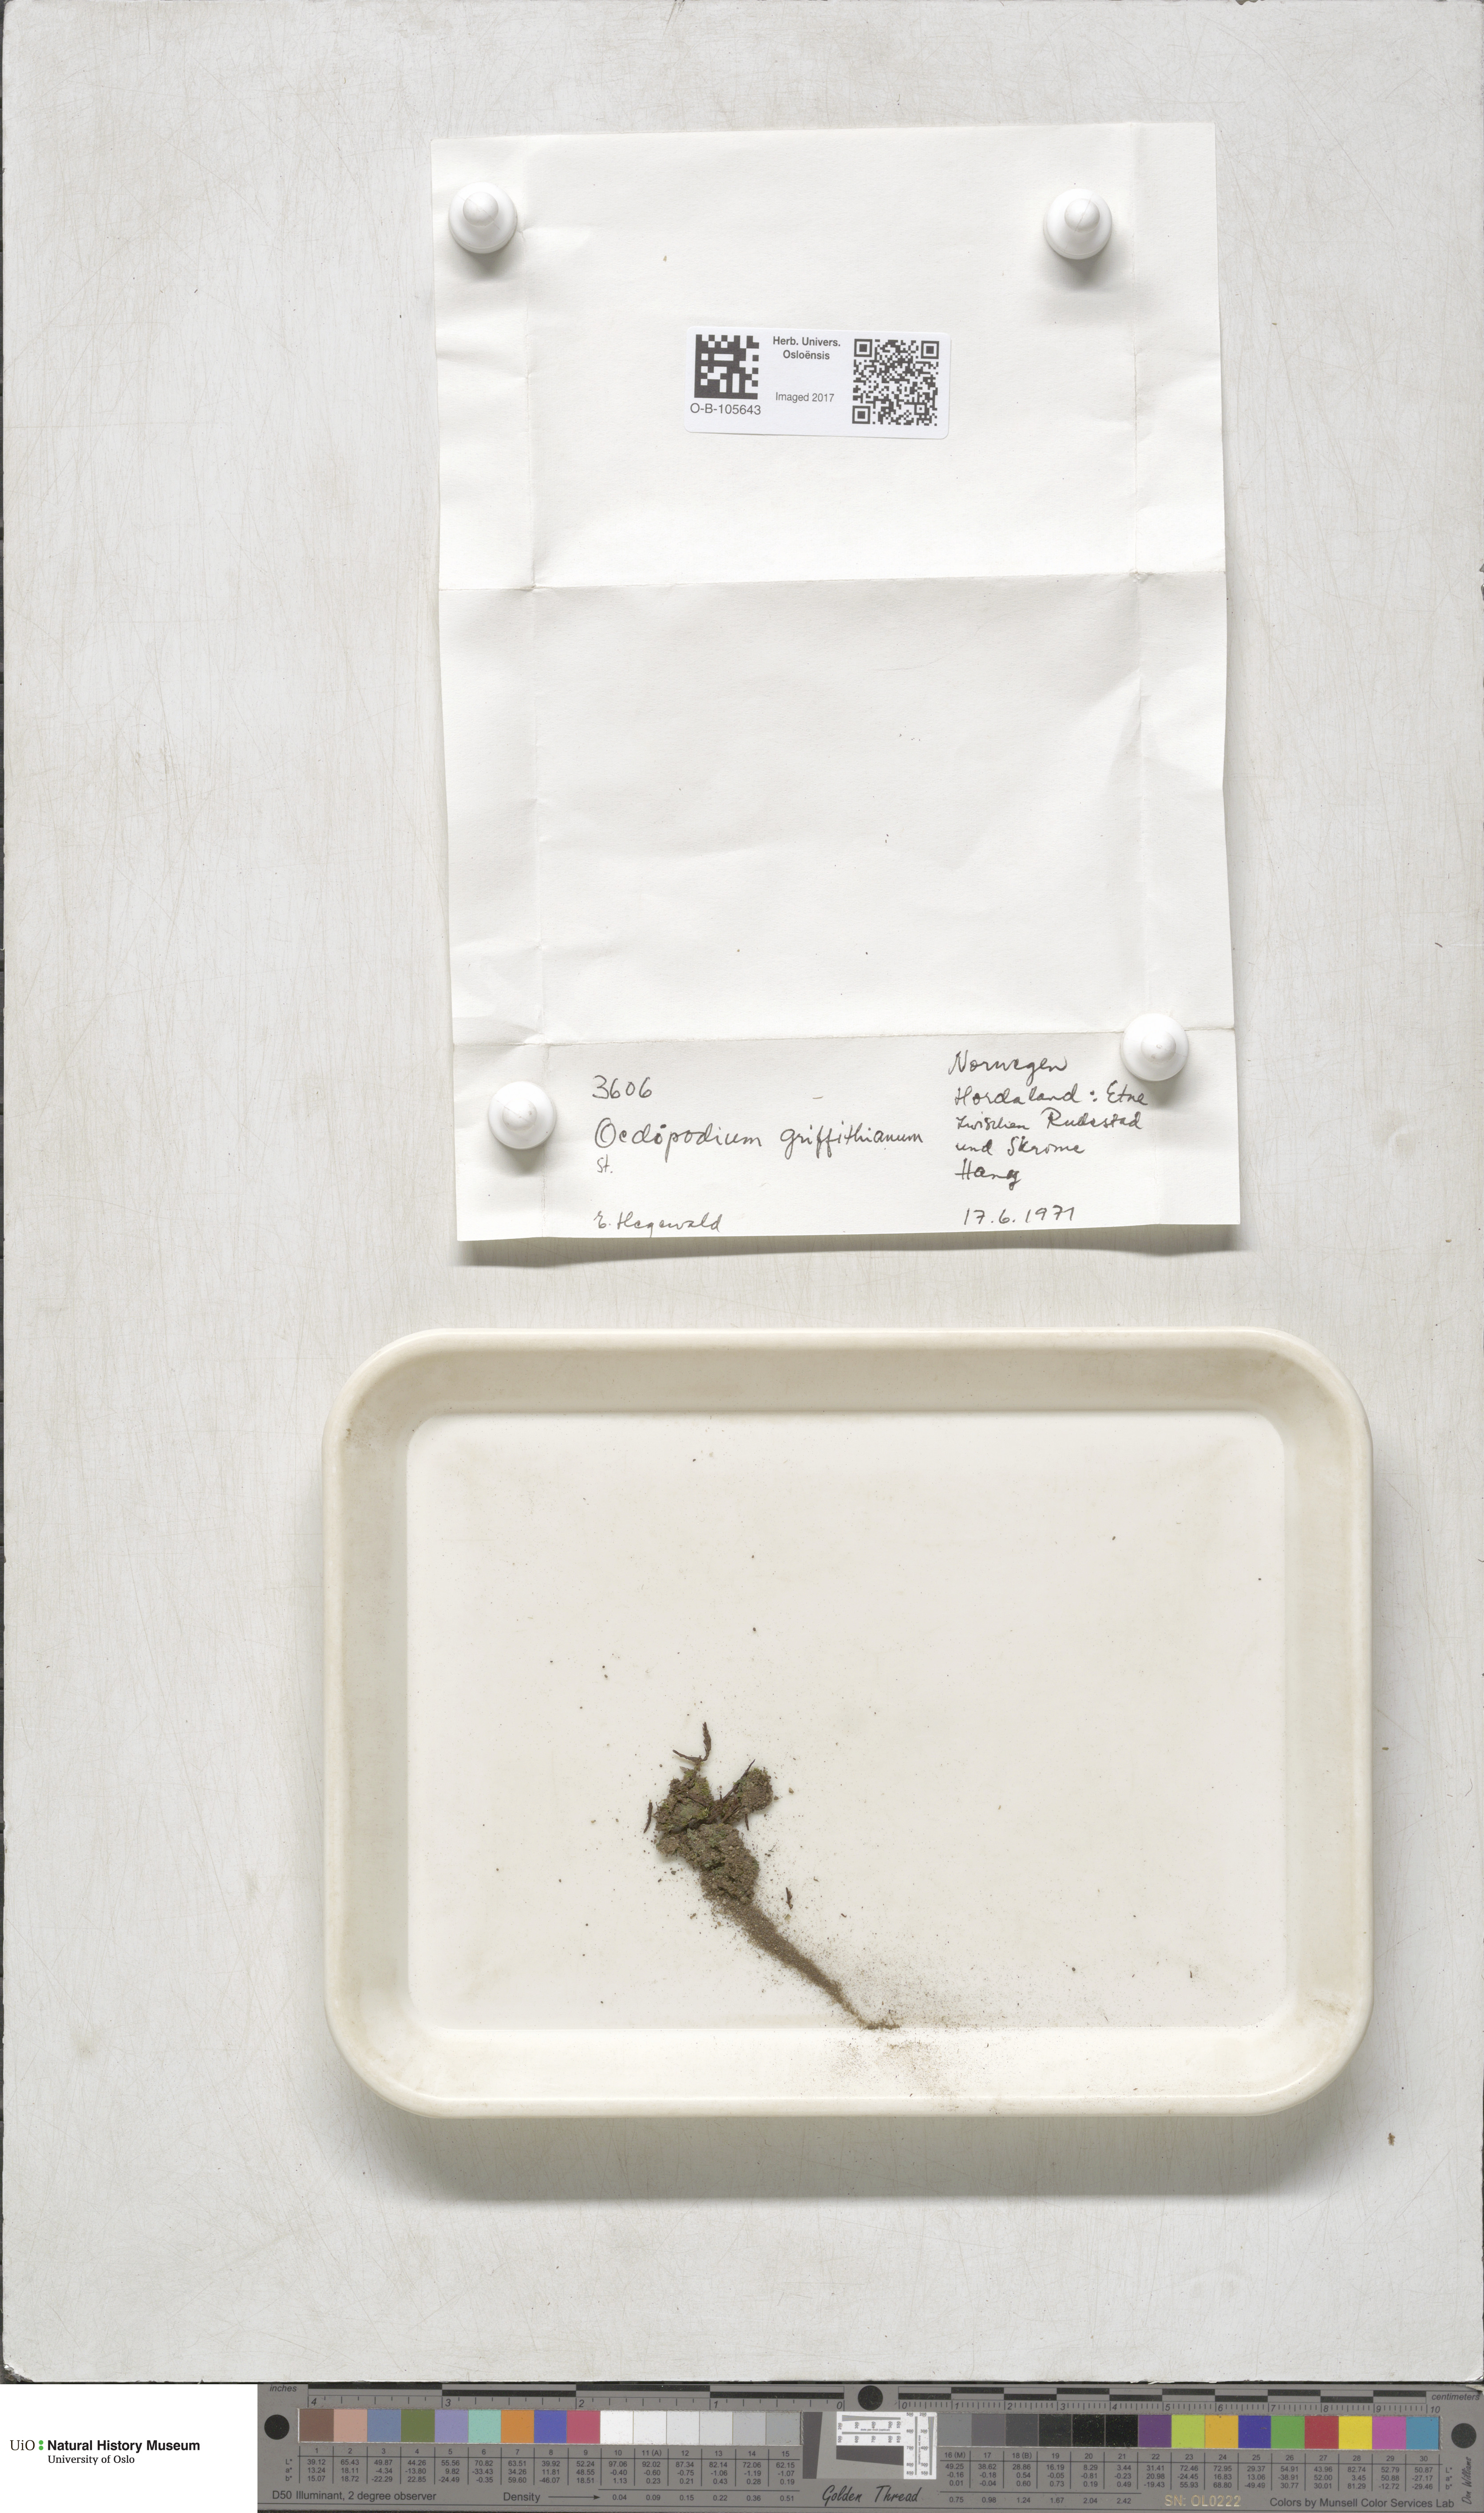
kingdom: Plantae
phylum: Bryophyta
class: Polytrichopsida
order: Oedipodiales
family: Oedipodiaceae
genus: Oedipodium
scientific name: Oedipodium griffithianum
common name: Gouty-moss
